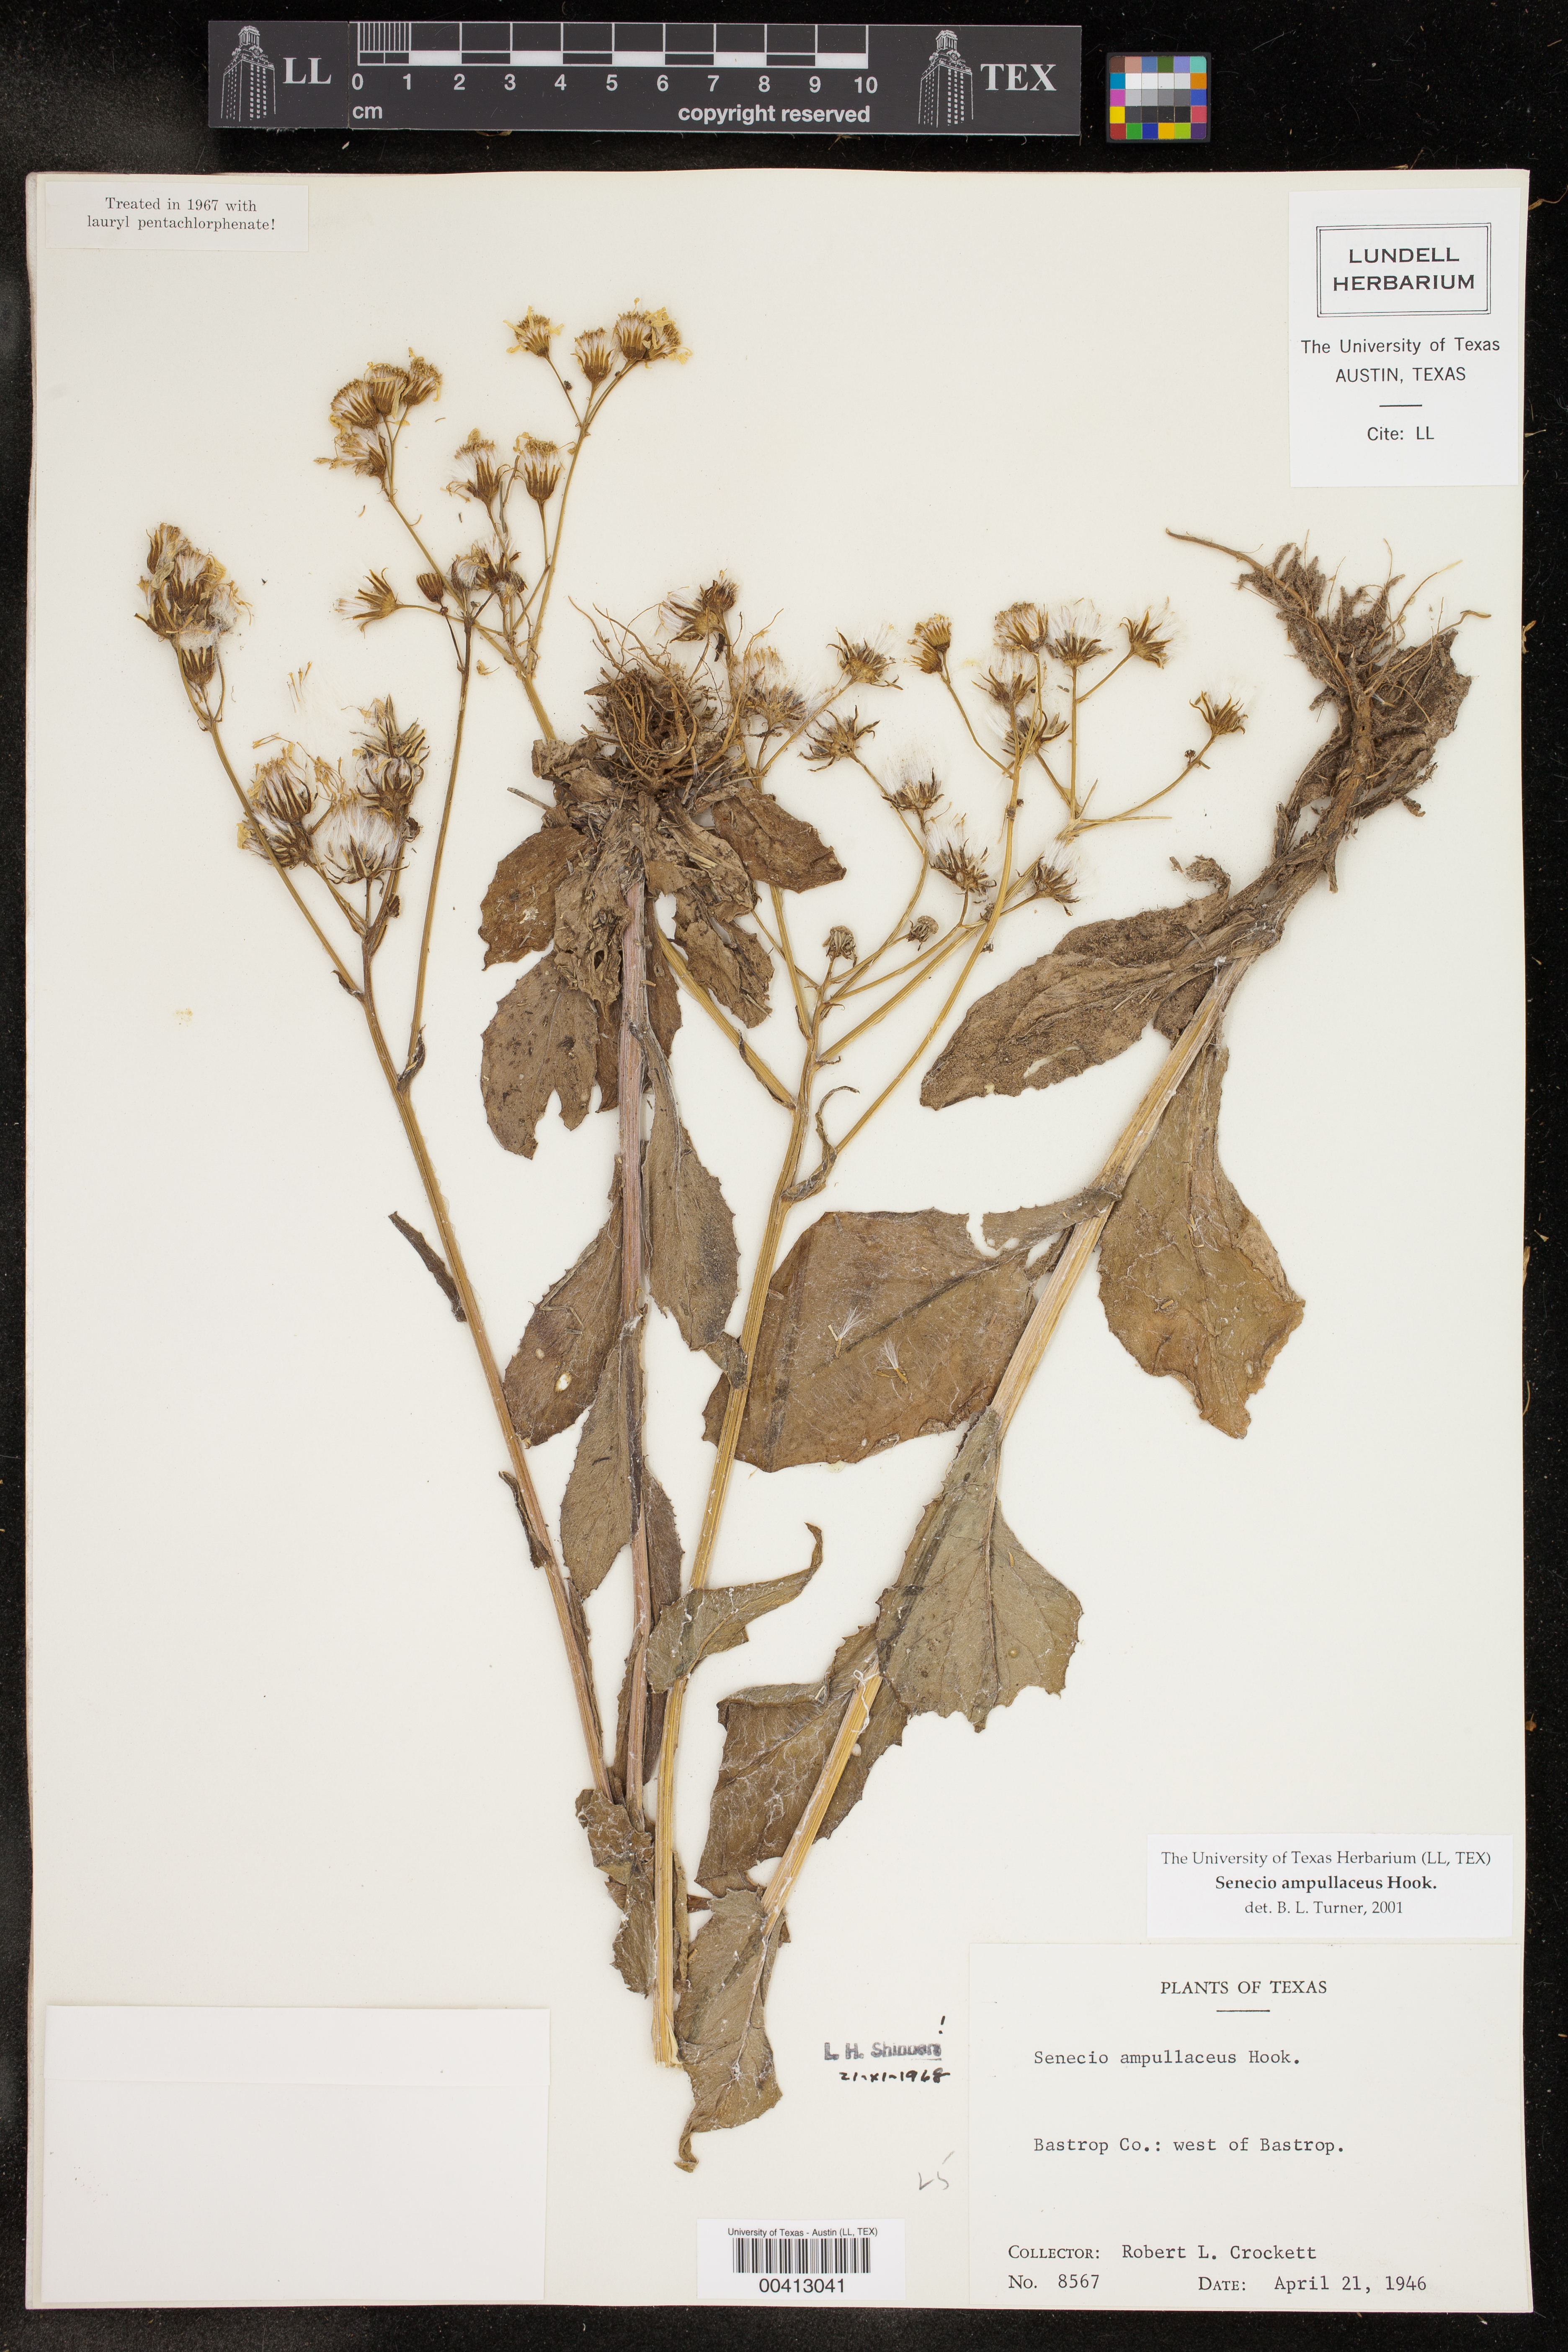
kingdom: Plantae
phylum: Tracheophyta
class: Magnoliopsida
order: Asterales
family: Asteraceae
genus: Senecio
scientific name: Senecio ampullaceus
